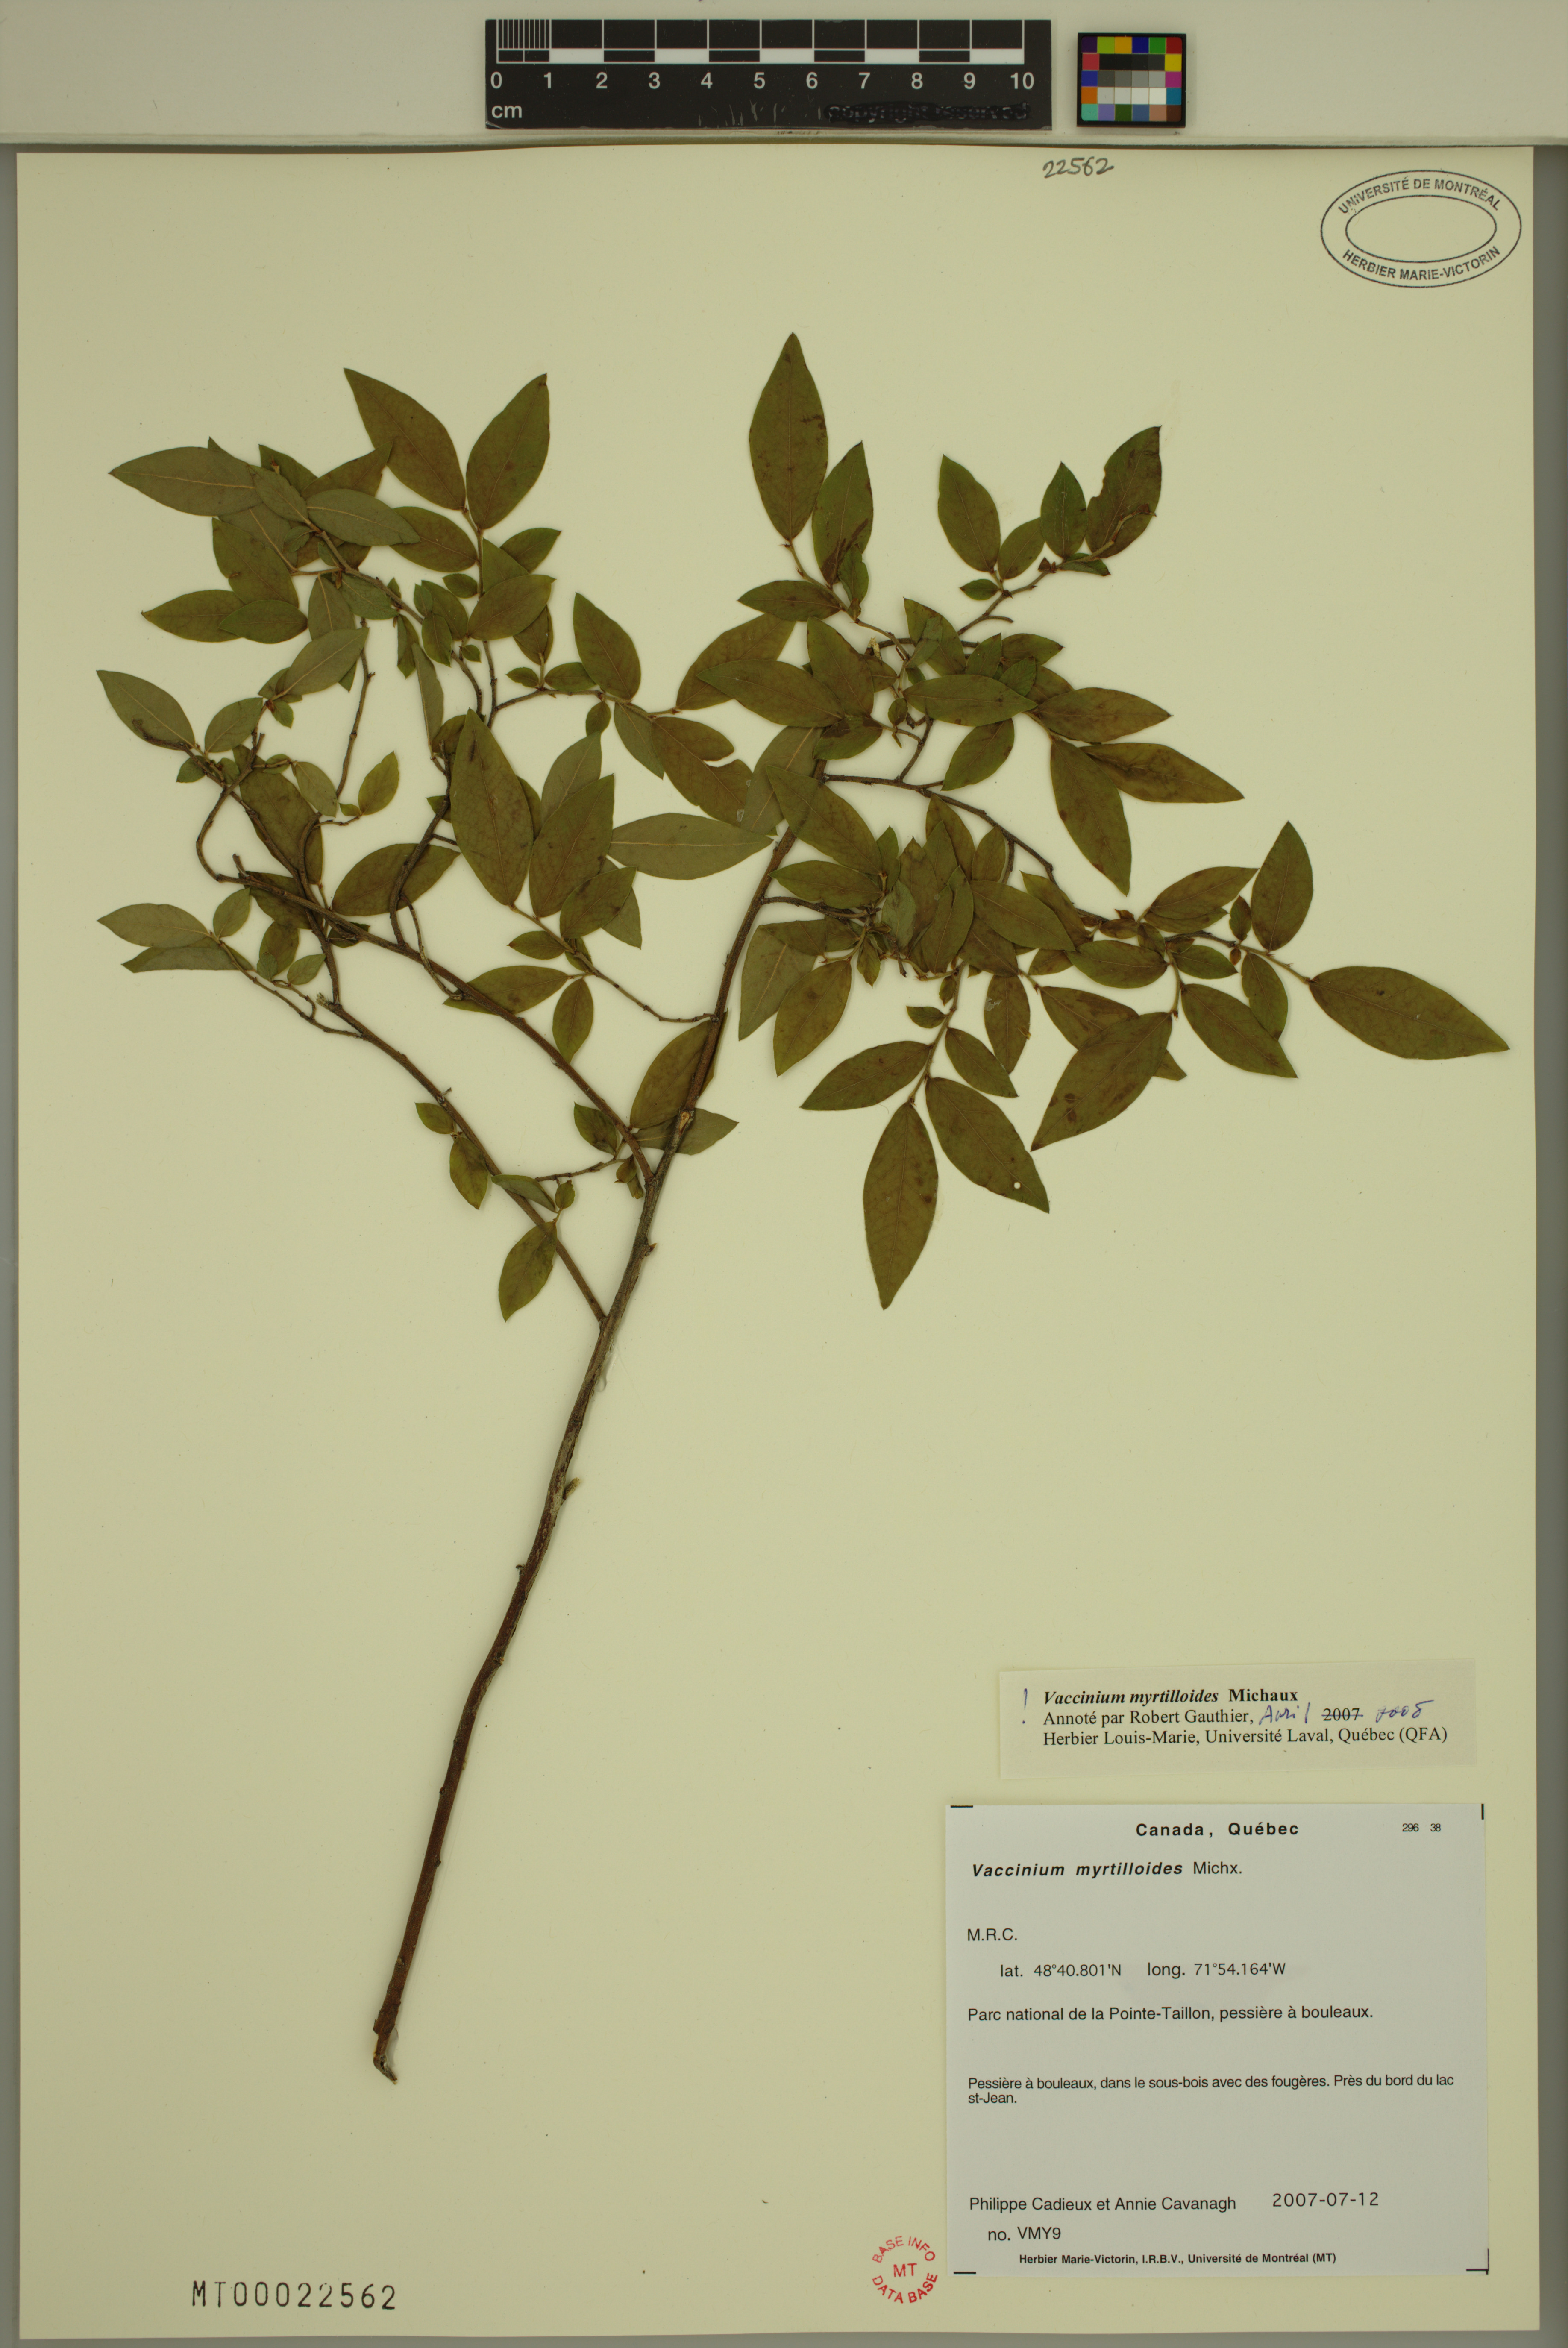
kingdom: Plantae
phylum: Tracheophyta
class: Magnoliopsida
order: Ericales
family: Ericaceae
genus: Vaccinium
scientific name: Vaccinium myrtilloides
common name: Canada blueberry
